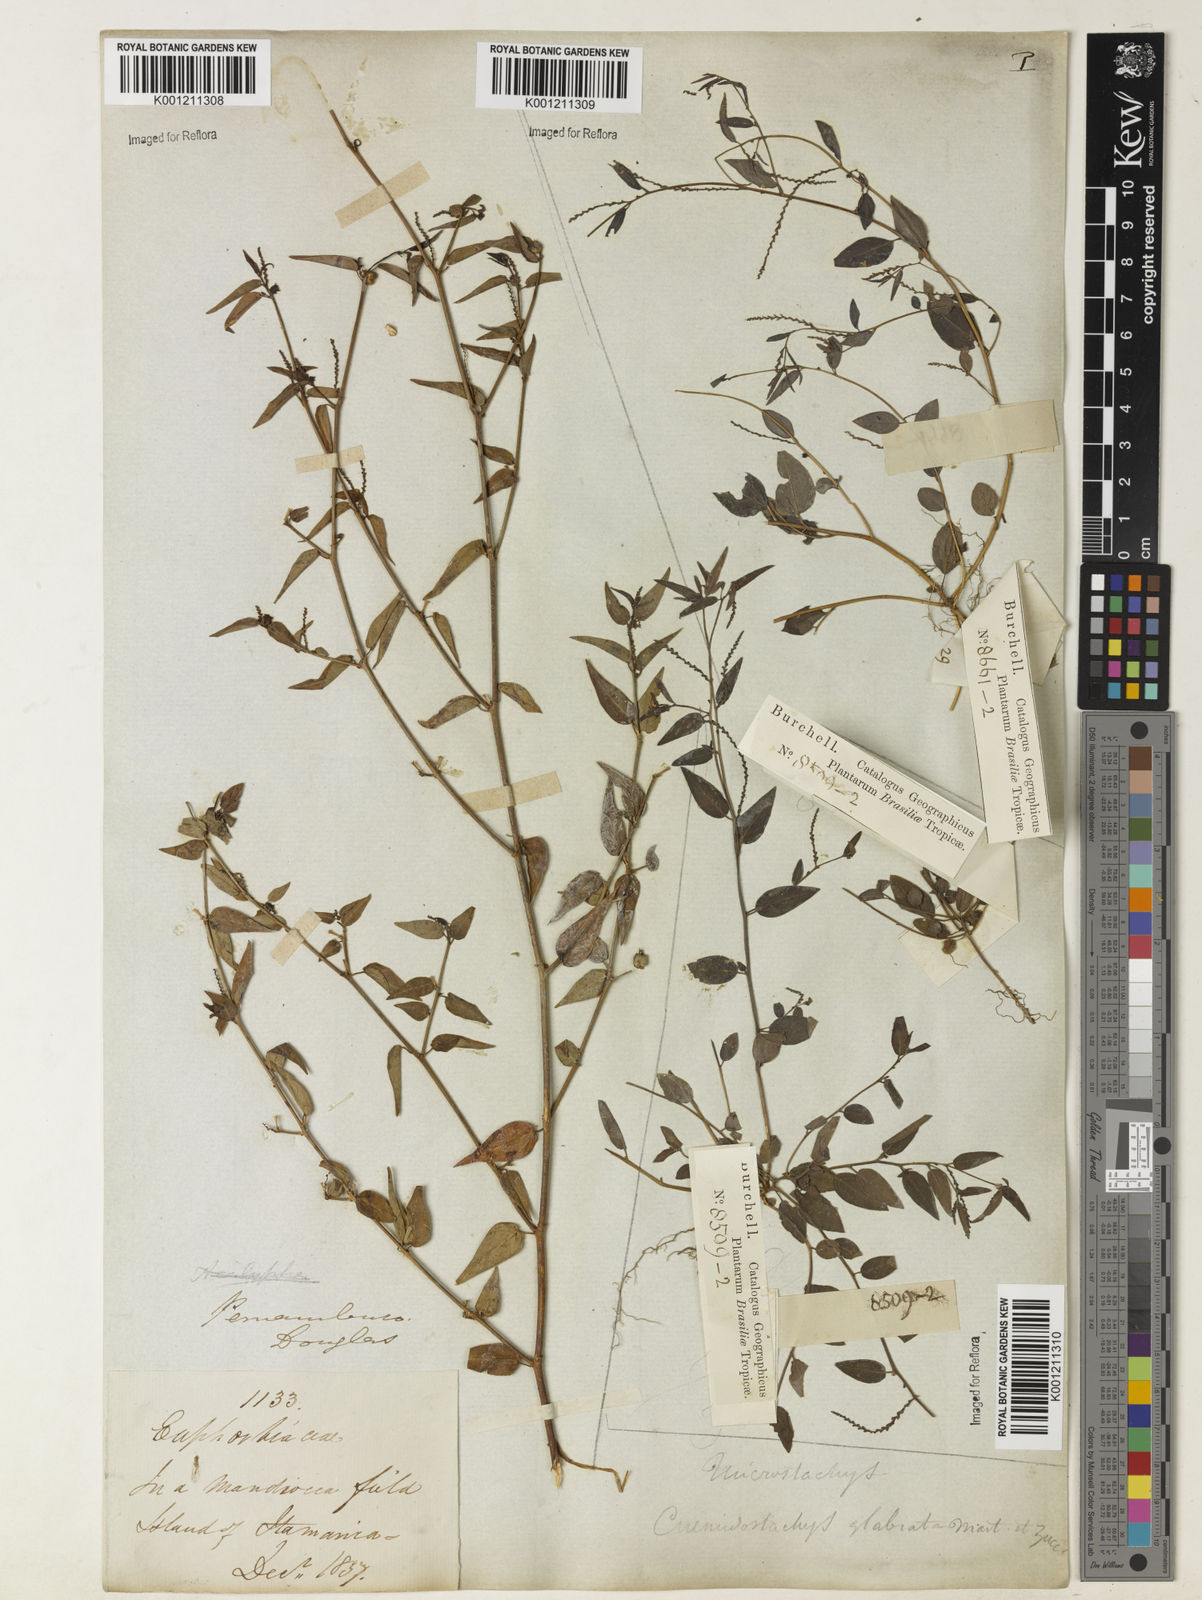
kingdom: Plantae
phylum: Tracheophyta
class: Magnoliopsida
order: Malpighiales
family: Euphorbiaceae
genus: Microstachys
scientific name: Microstachys corniculata
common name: Hato tejas
